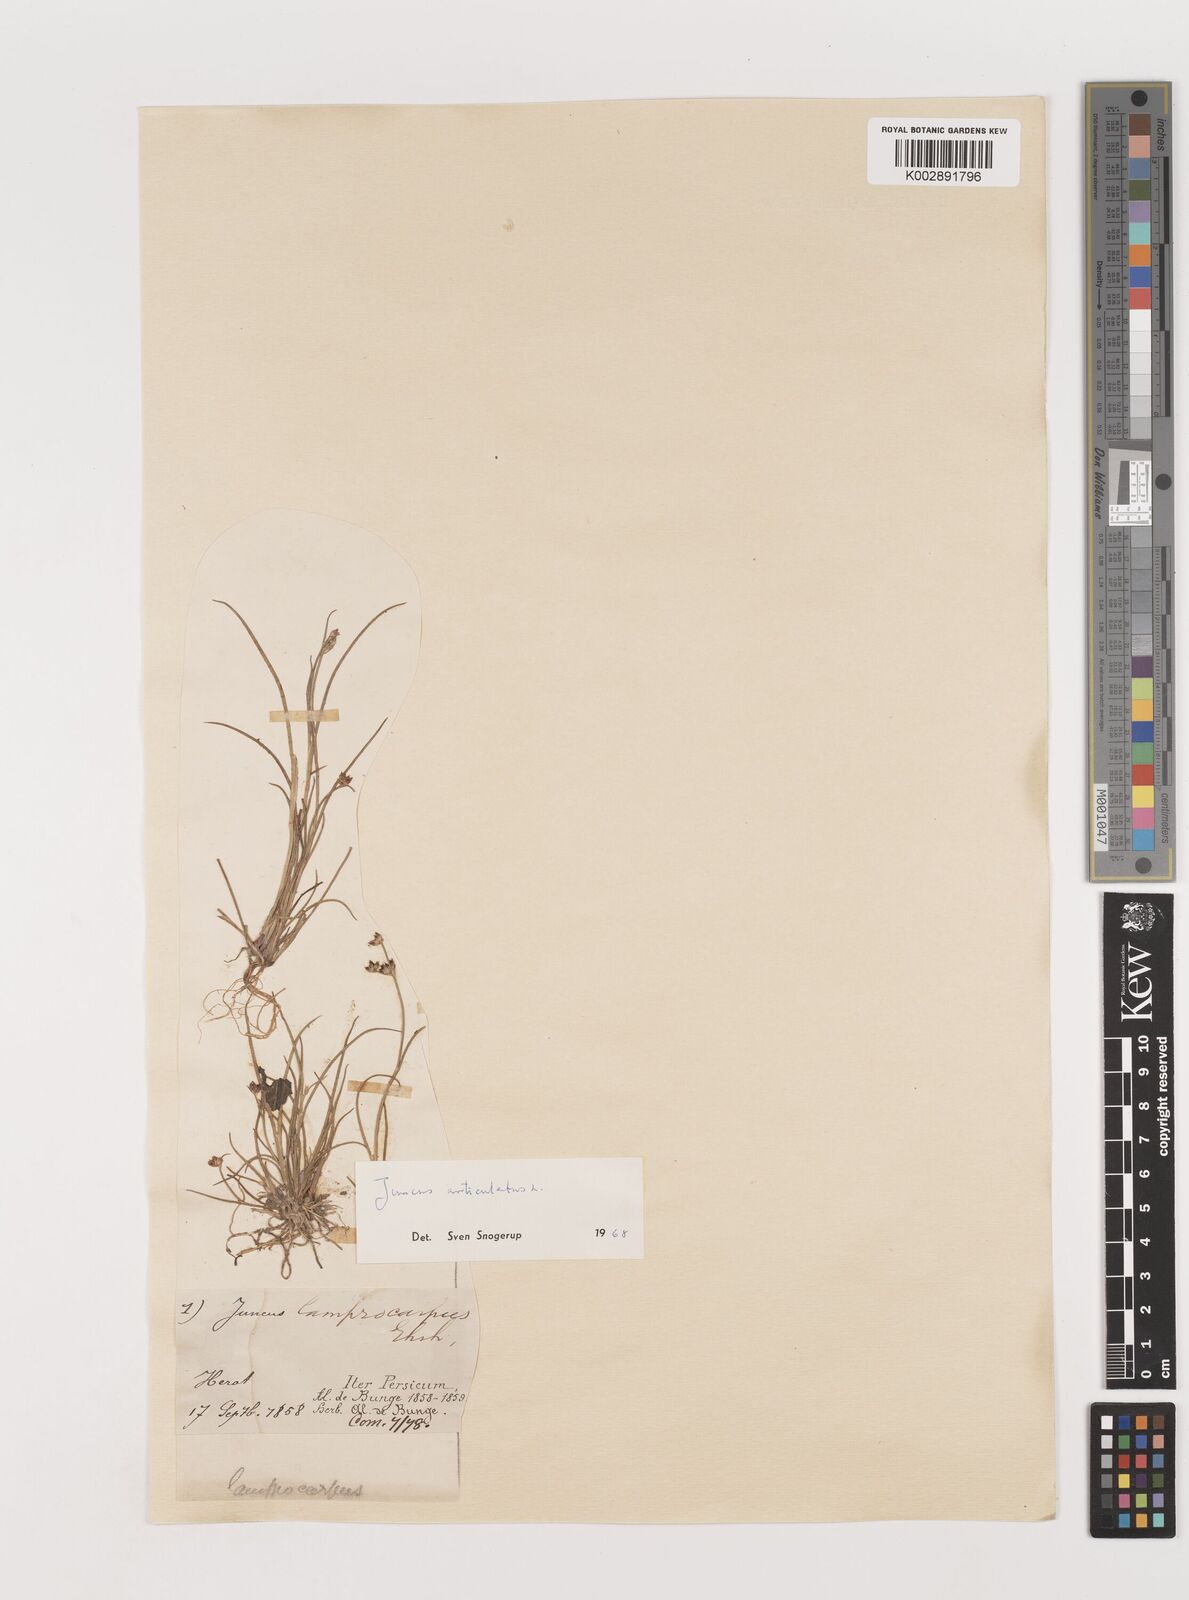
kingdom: Plantae
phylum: Tracheophyta
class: Liliopsida
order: Poales
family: Juncaceae
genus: Juncus
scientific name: Juncus articulatus
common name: Jointed rush
